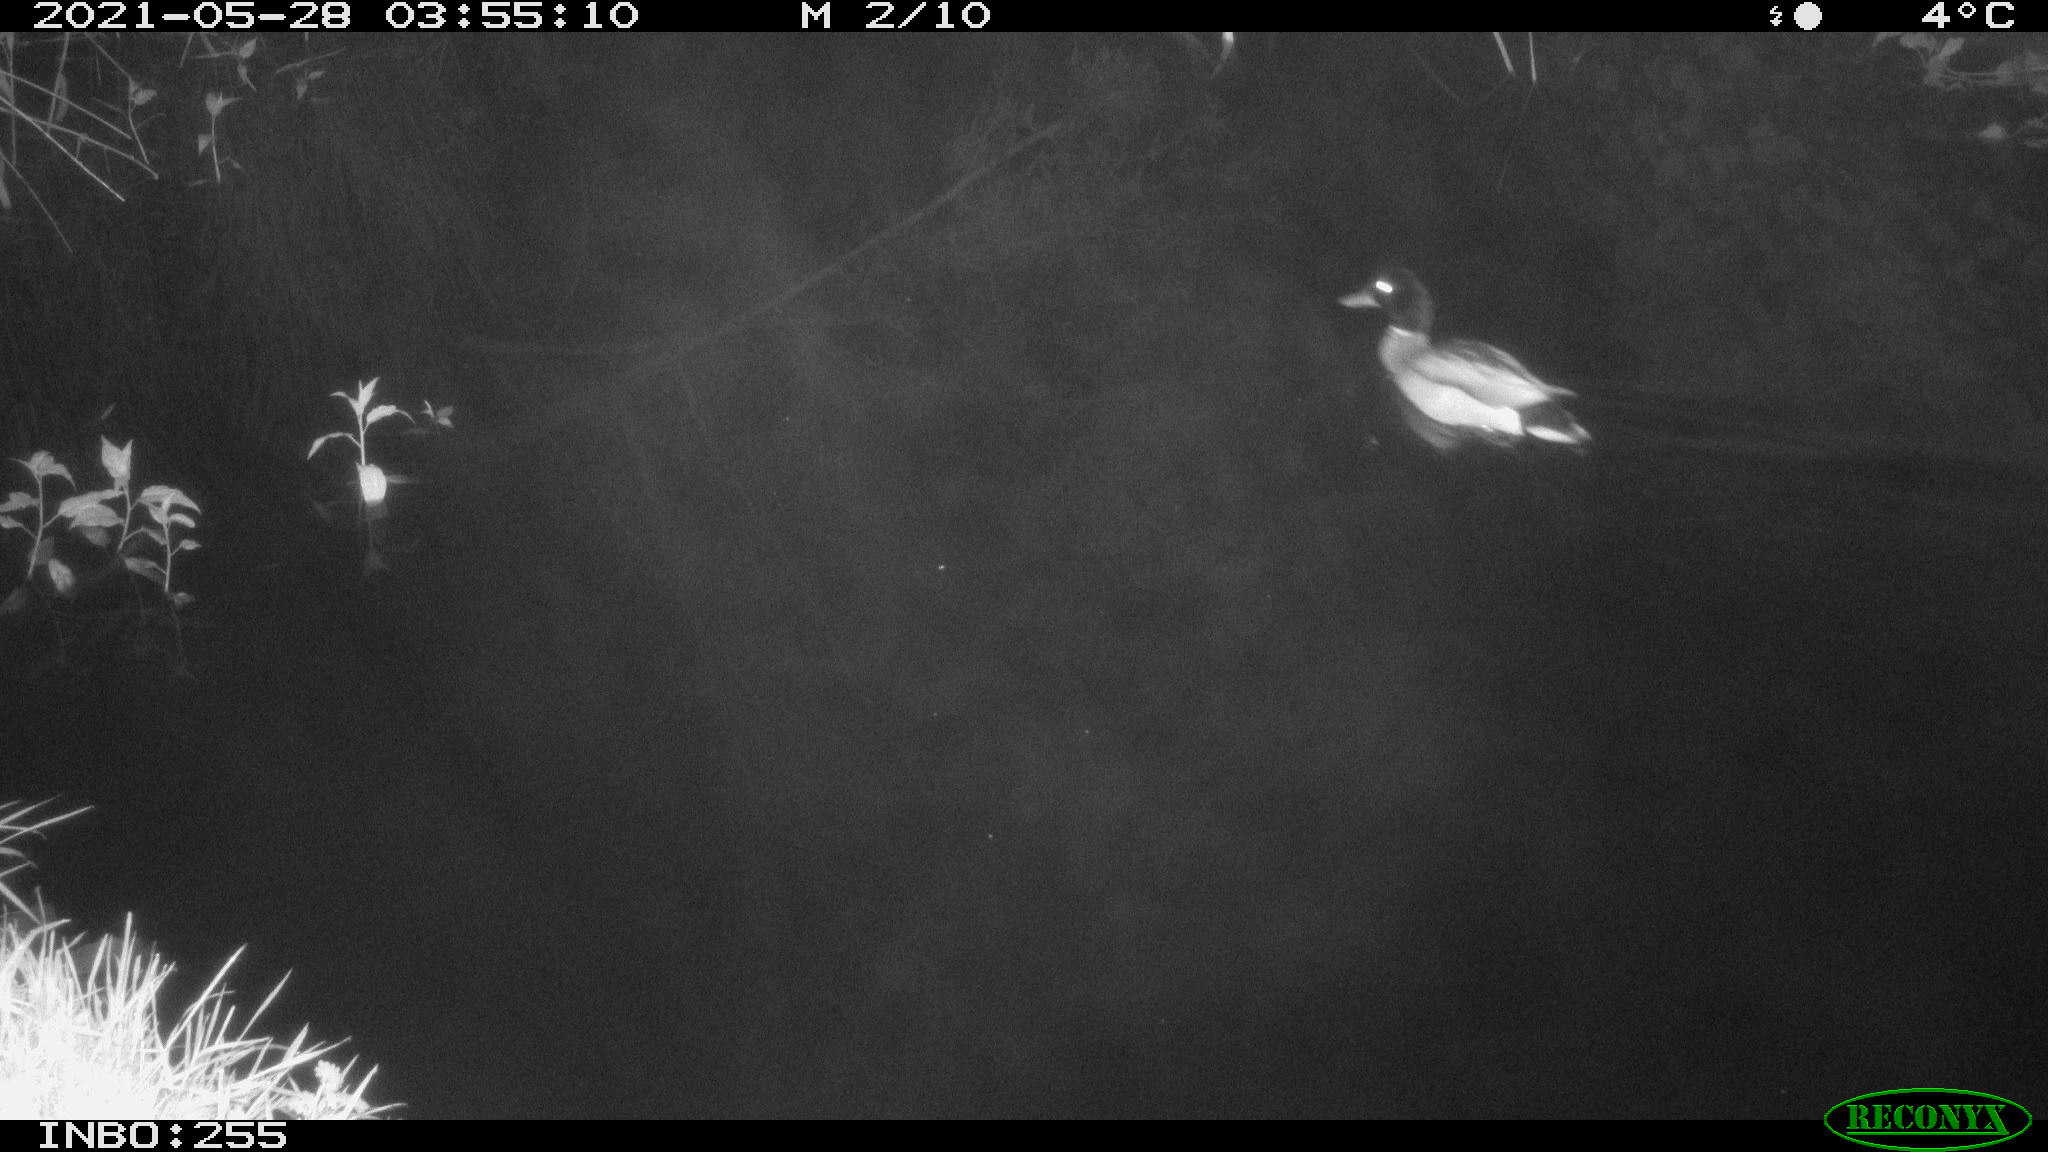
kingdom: Animalia
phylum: Chordata
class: Aves
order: Anseriformes
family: Anatidae
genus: Anas
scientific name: Anas
